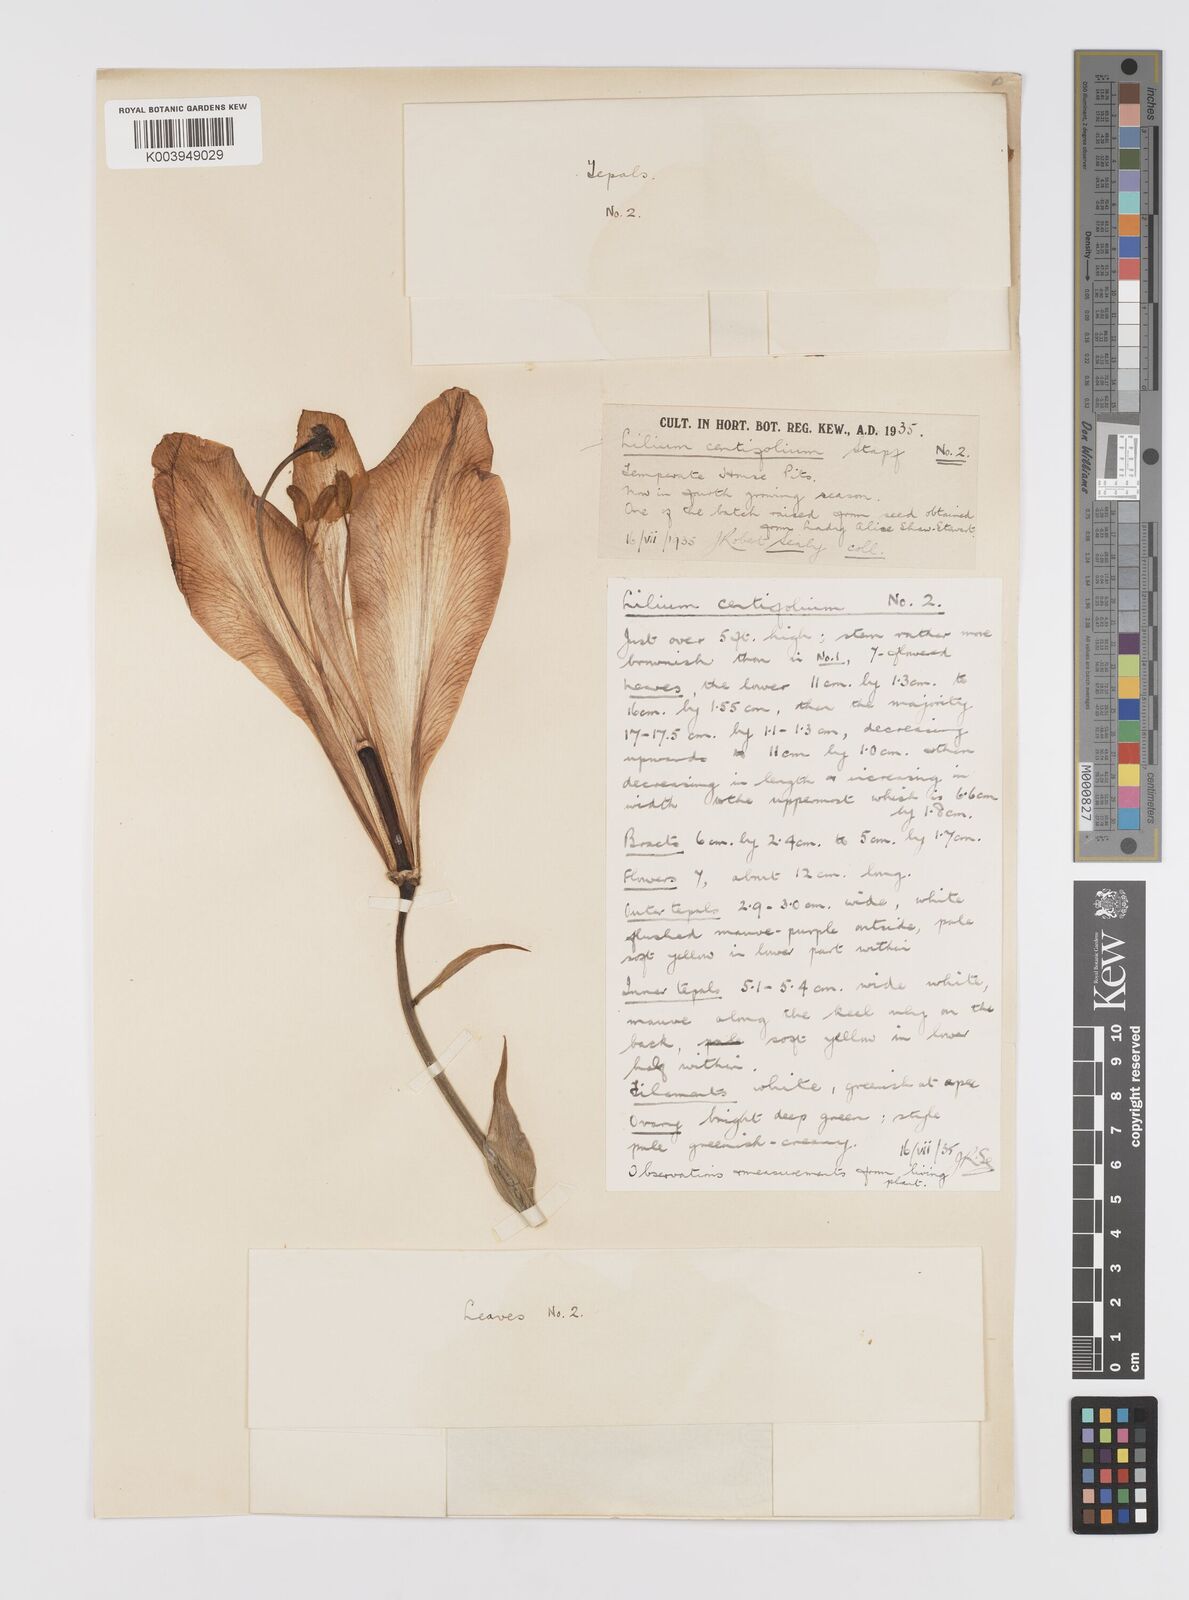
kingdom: Plantae
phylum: Tracheophyta
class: Liliopsida
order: Liliales
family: Liliaceae
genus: Lilium
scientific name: Lilium sargentiae
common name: Sargent lily
